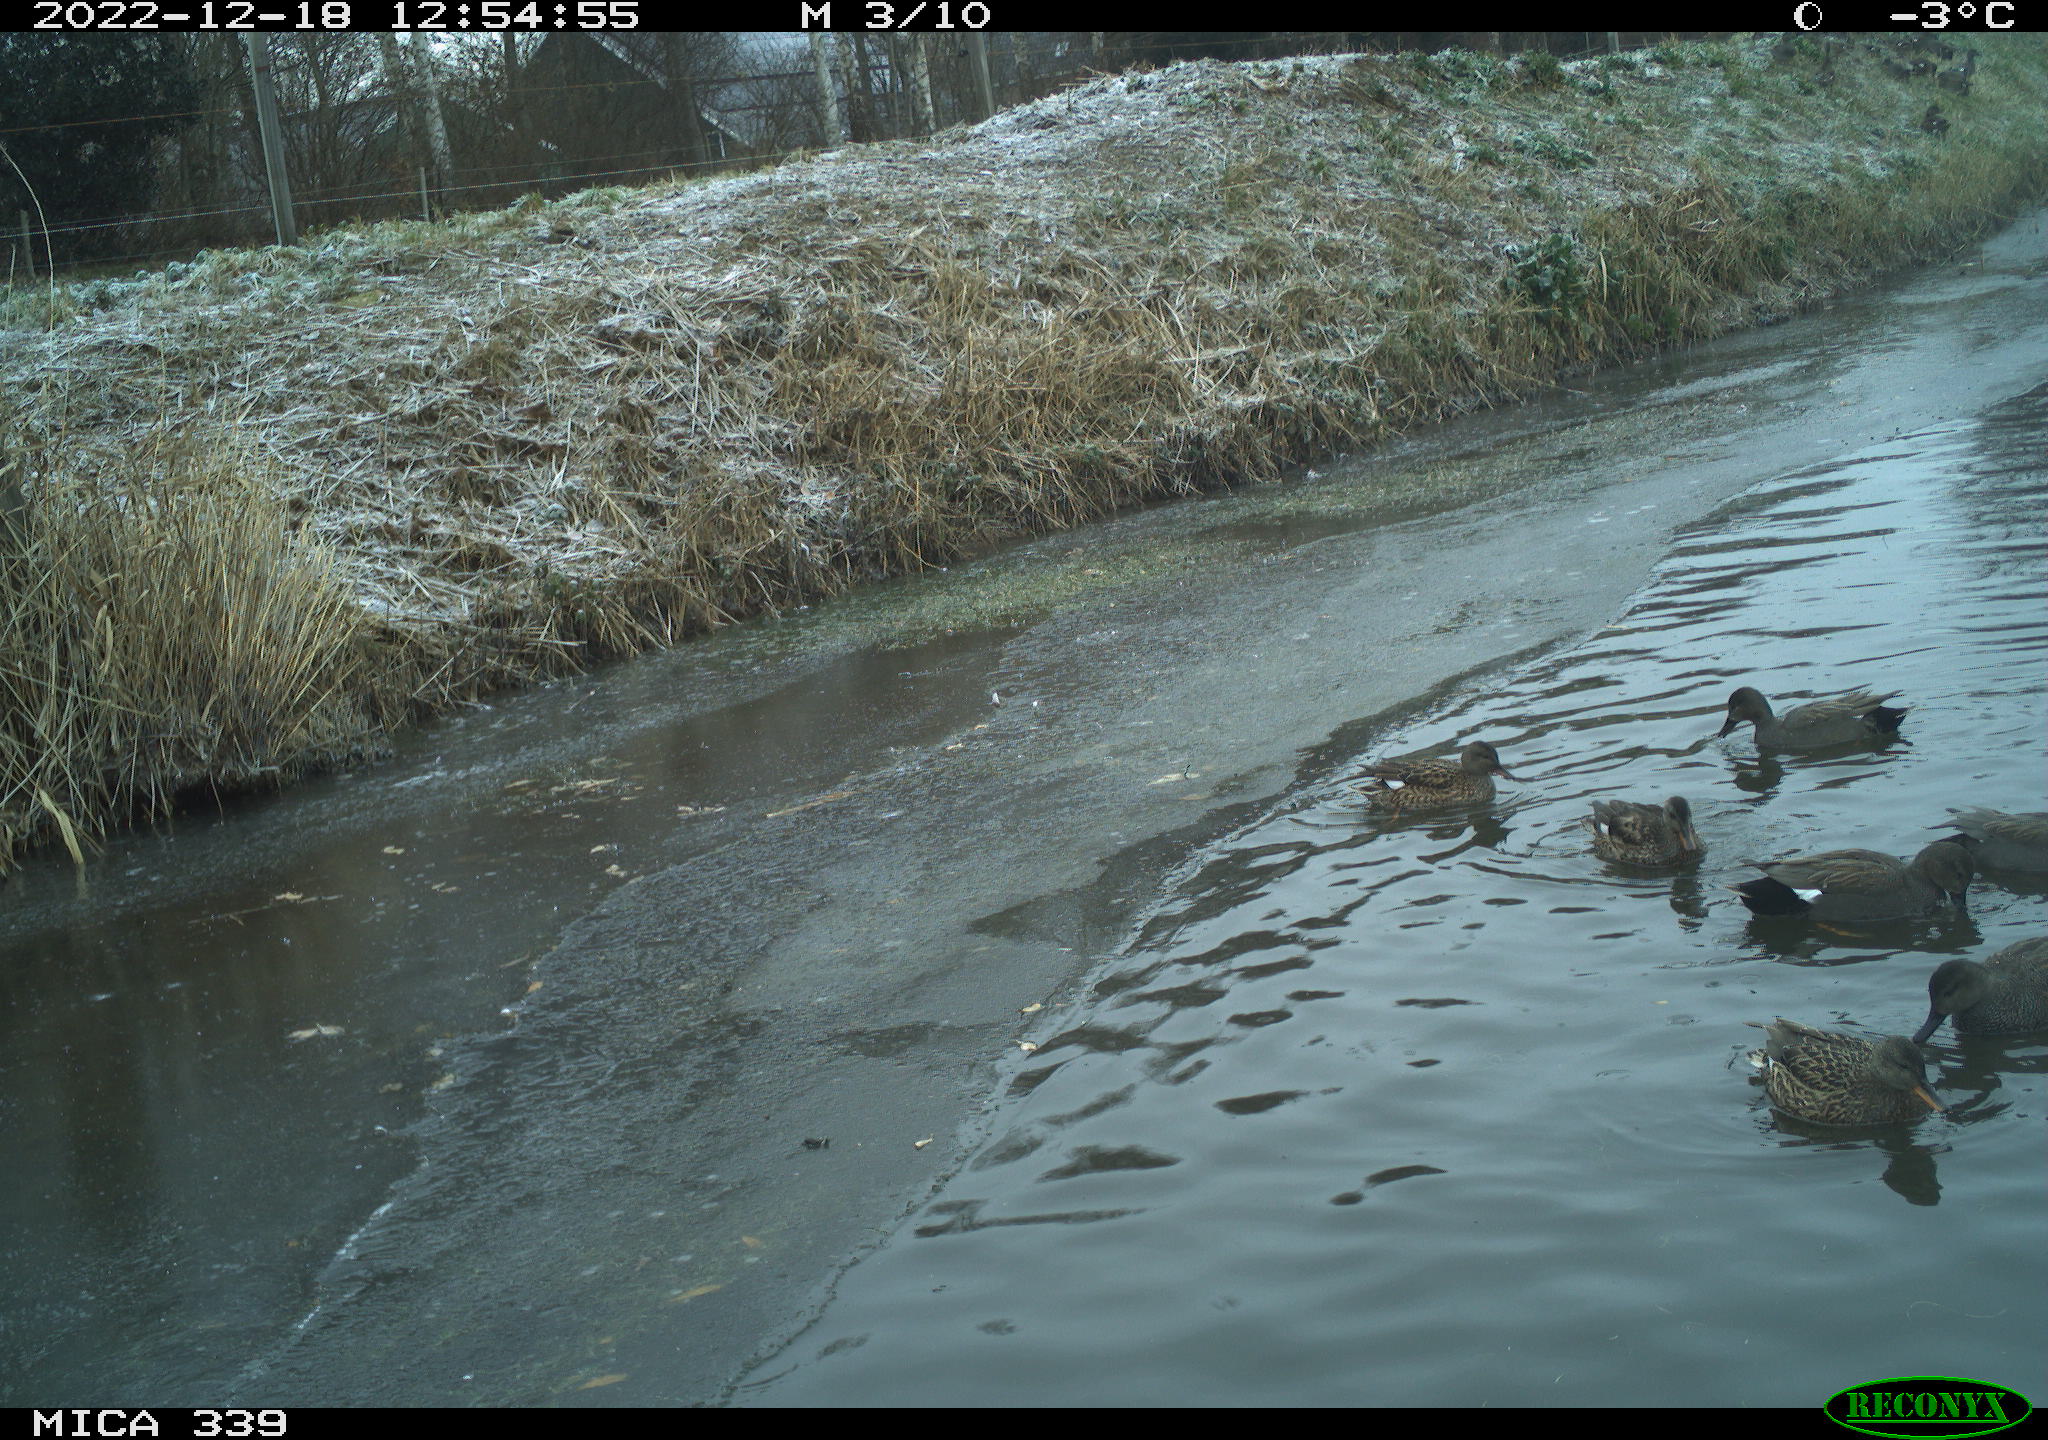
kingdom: Animalia
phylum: Chordata
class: Aves
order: Anseriformes
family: Anatidae
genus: Anas
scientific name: Anas
